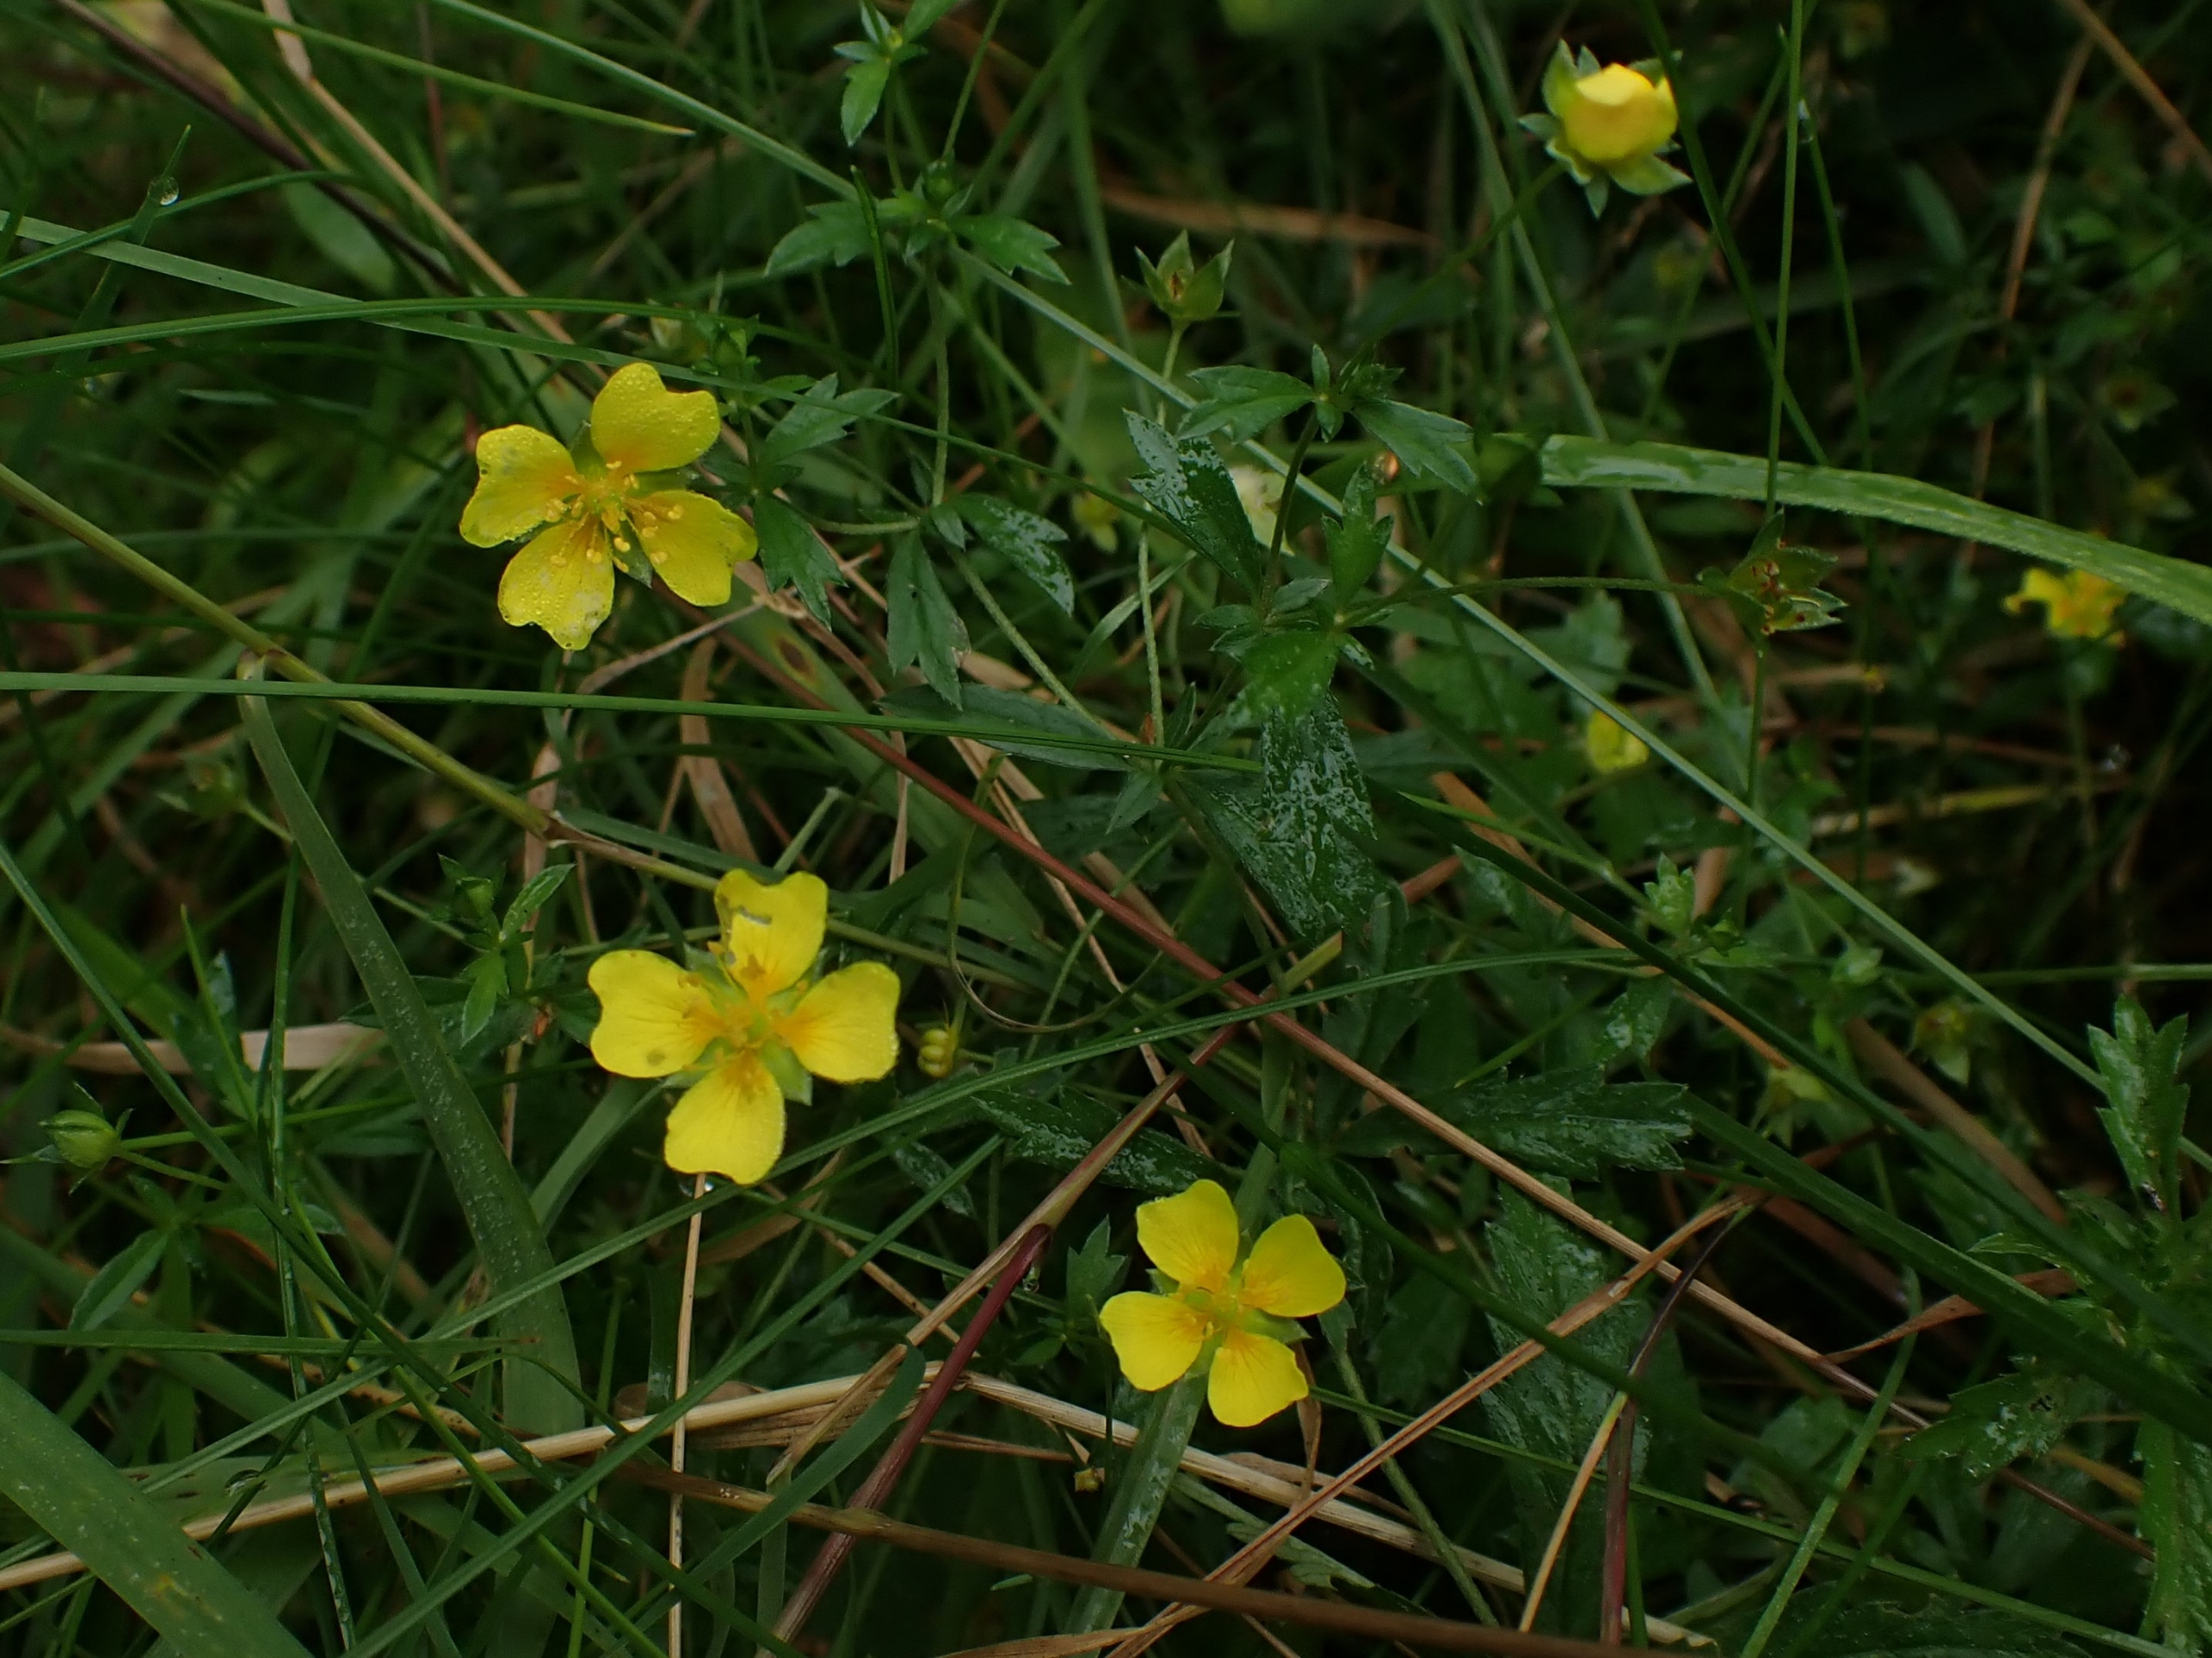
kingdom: Plantae
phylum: Tracheophyta
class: Magnoliopsida
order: Rosales
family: Rosaceae
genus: Potentilla
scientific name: Potentilla erecta
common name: Tormentil
